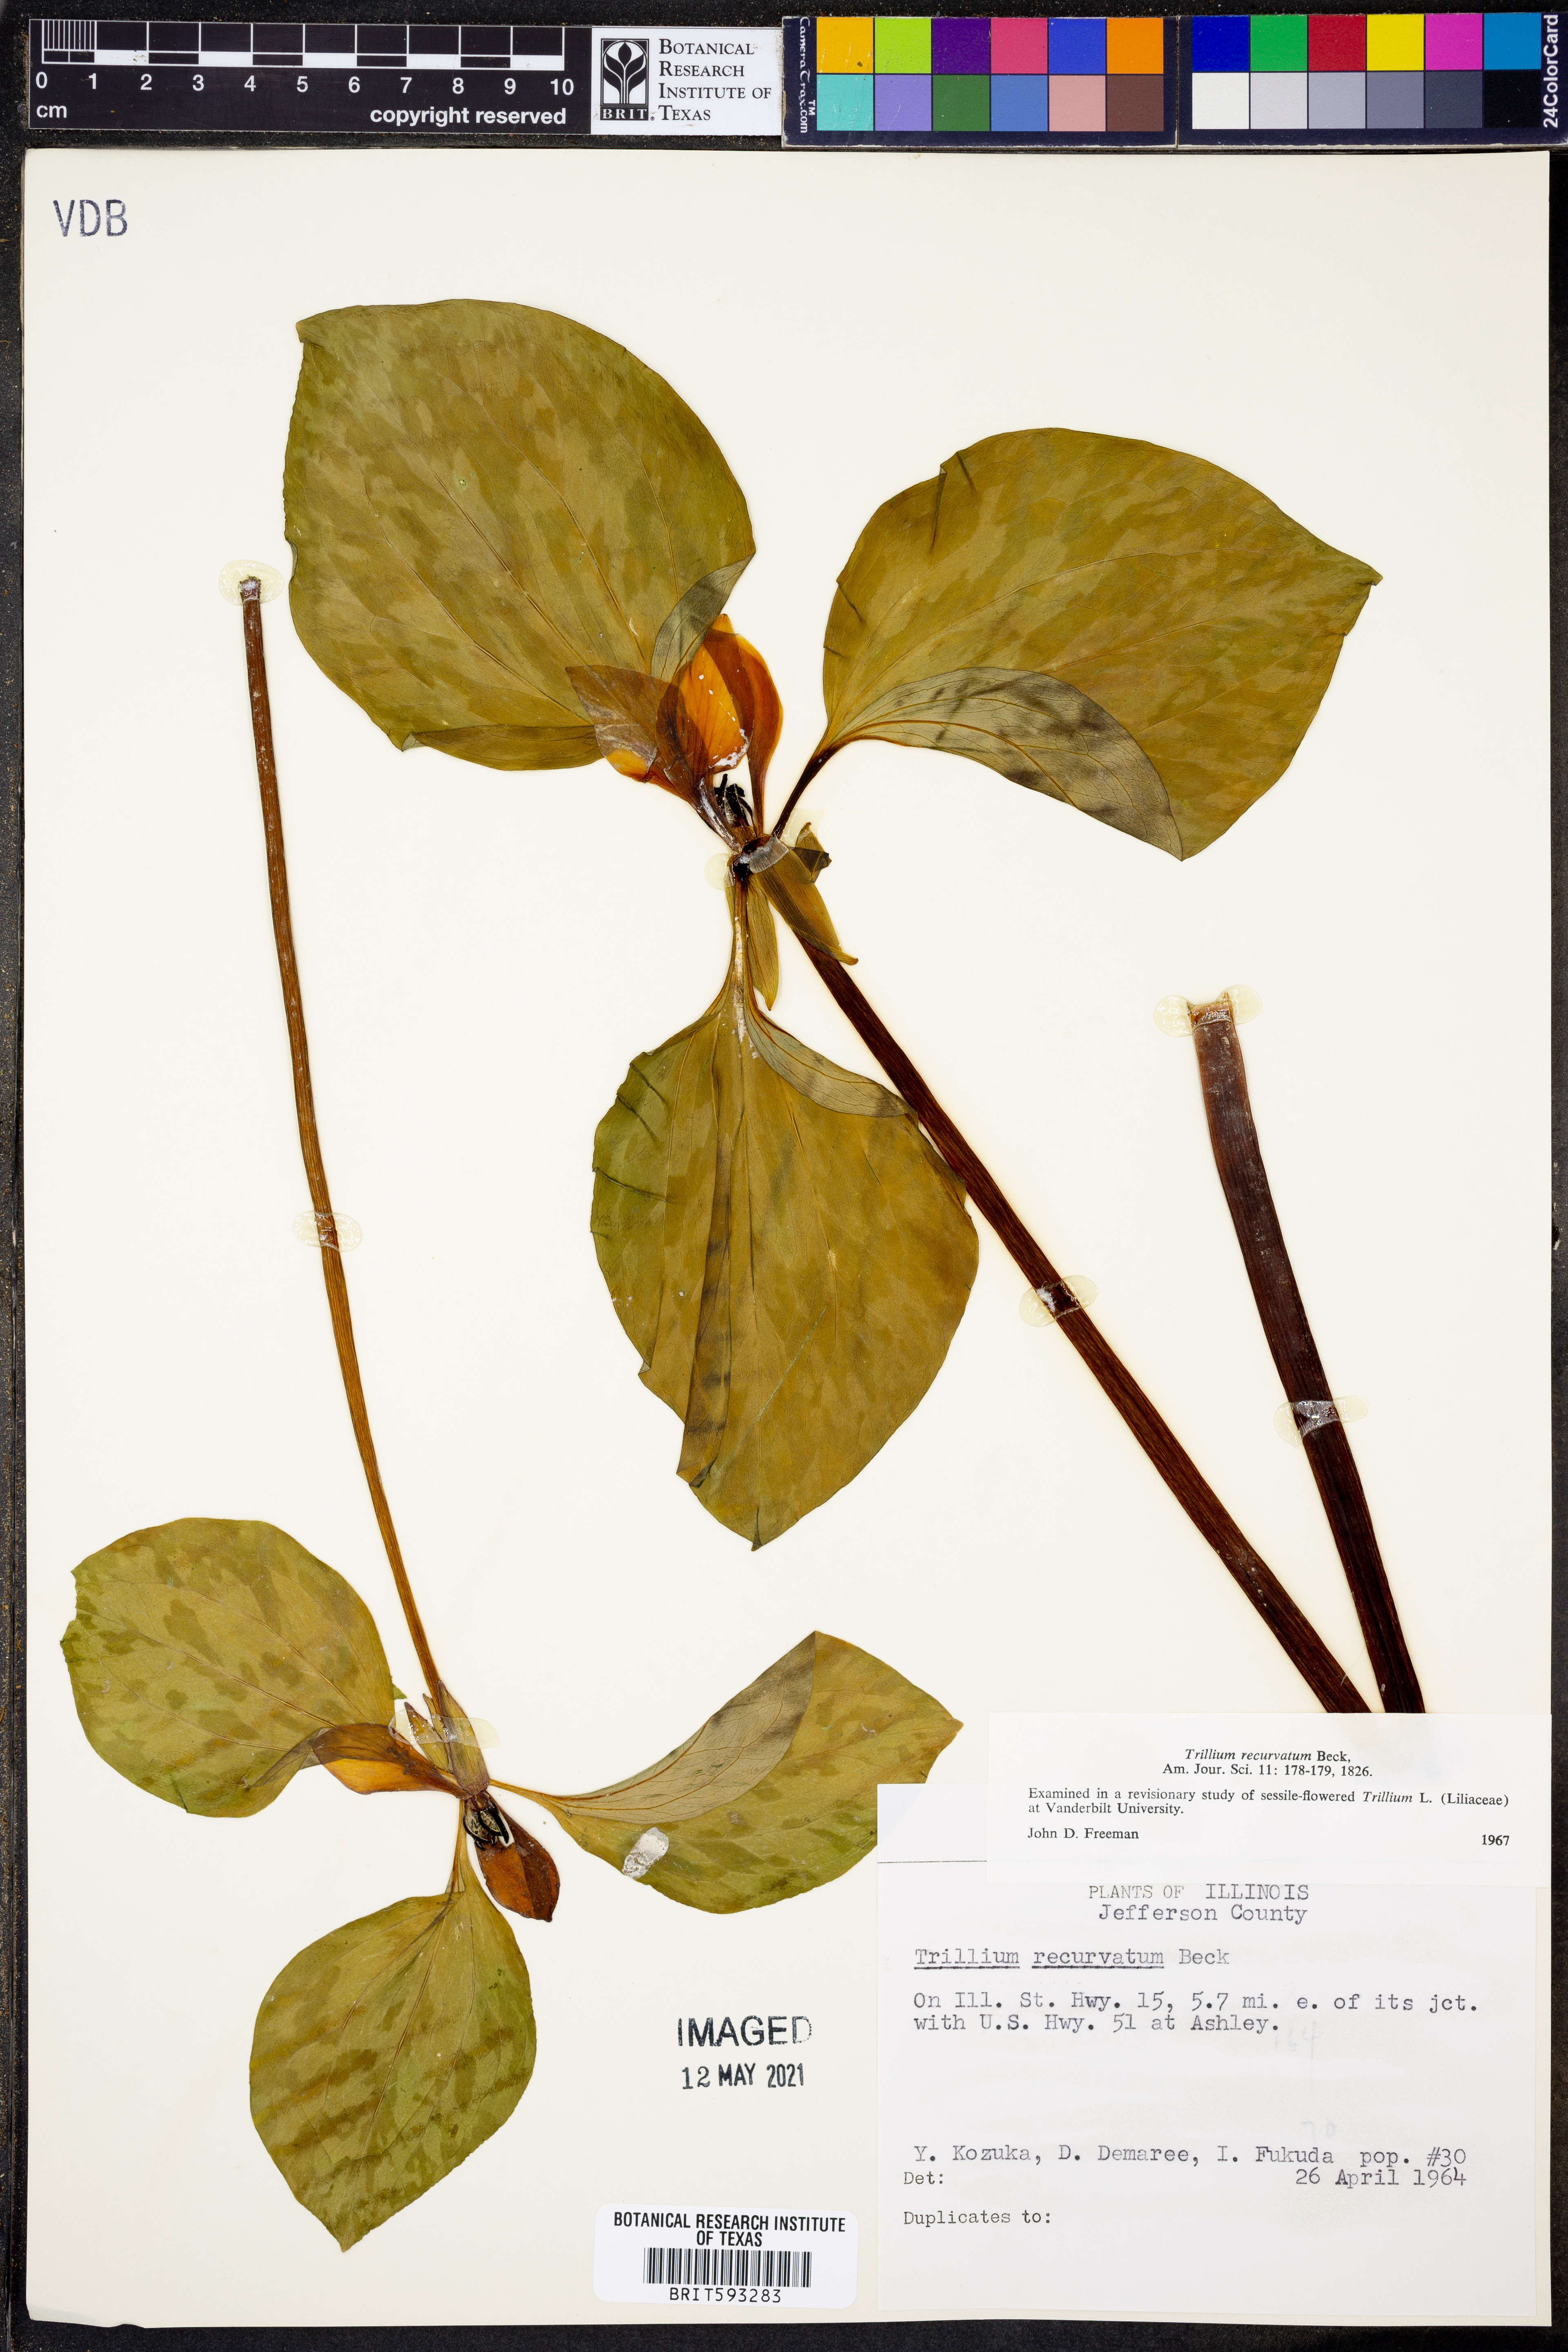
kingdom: Plantae
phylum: Tracheophyta
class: Liliopsida
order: Liliales
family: Melanthiaceae
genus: Trillium
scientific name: Trillium recurvatum
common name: Bloody butcher
